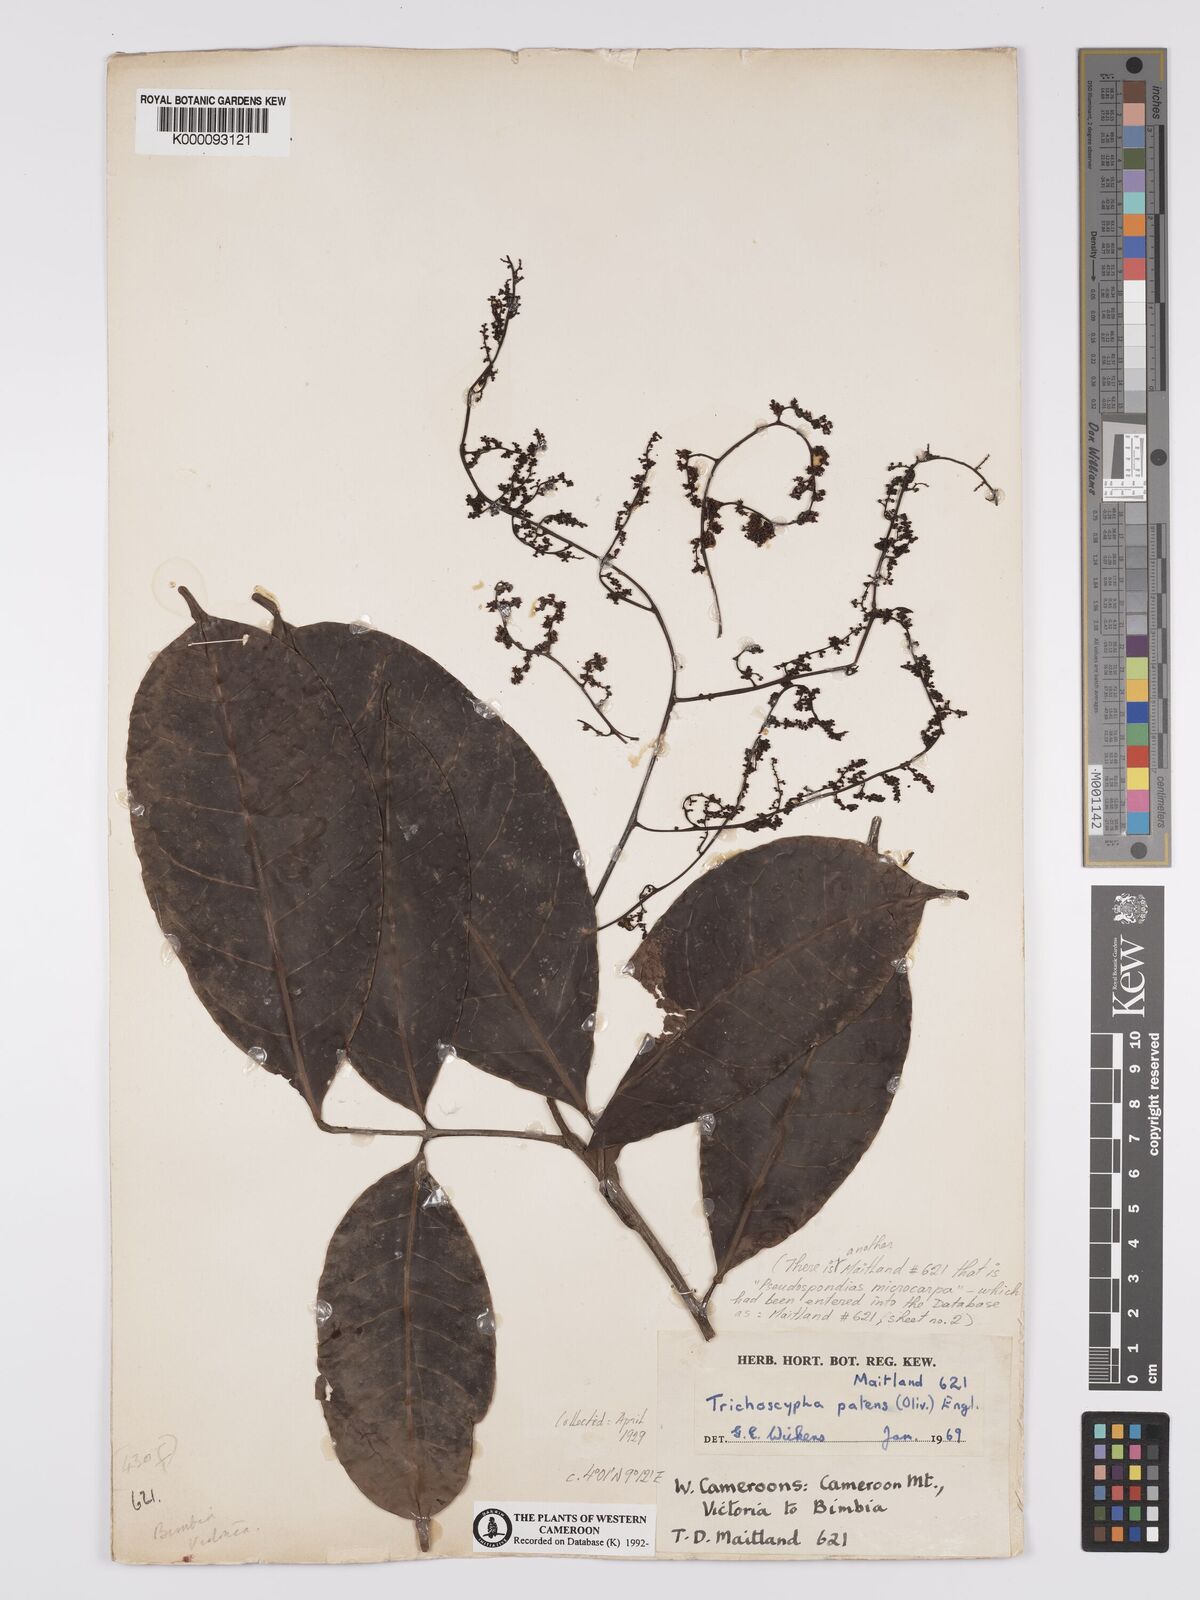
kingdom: Plantae
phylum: Tracheophyta
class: Magnoliopsida
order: Sapindales
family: Anacardiaceae
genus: Trichoscypha
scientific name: Trichoscypha patens
